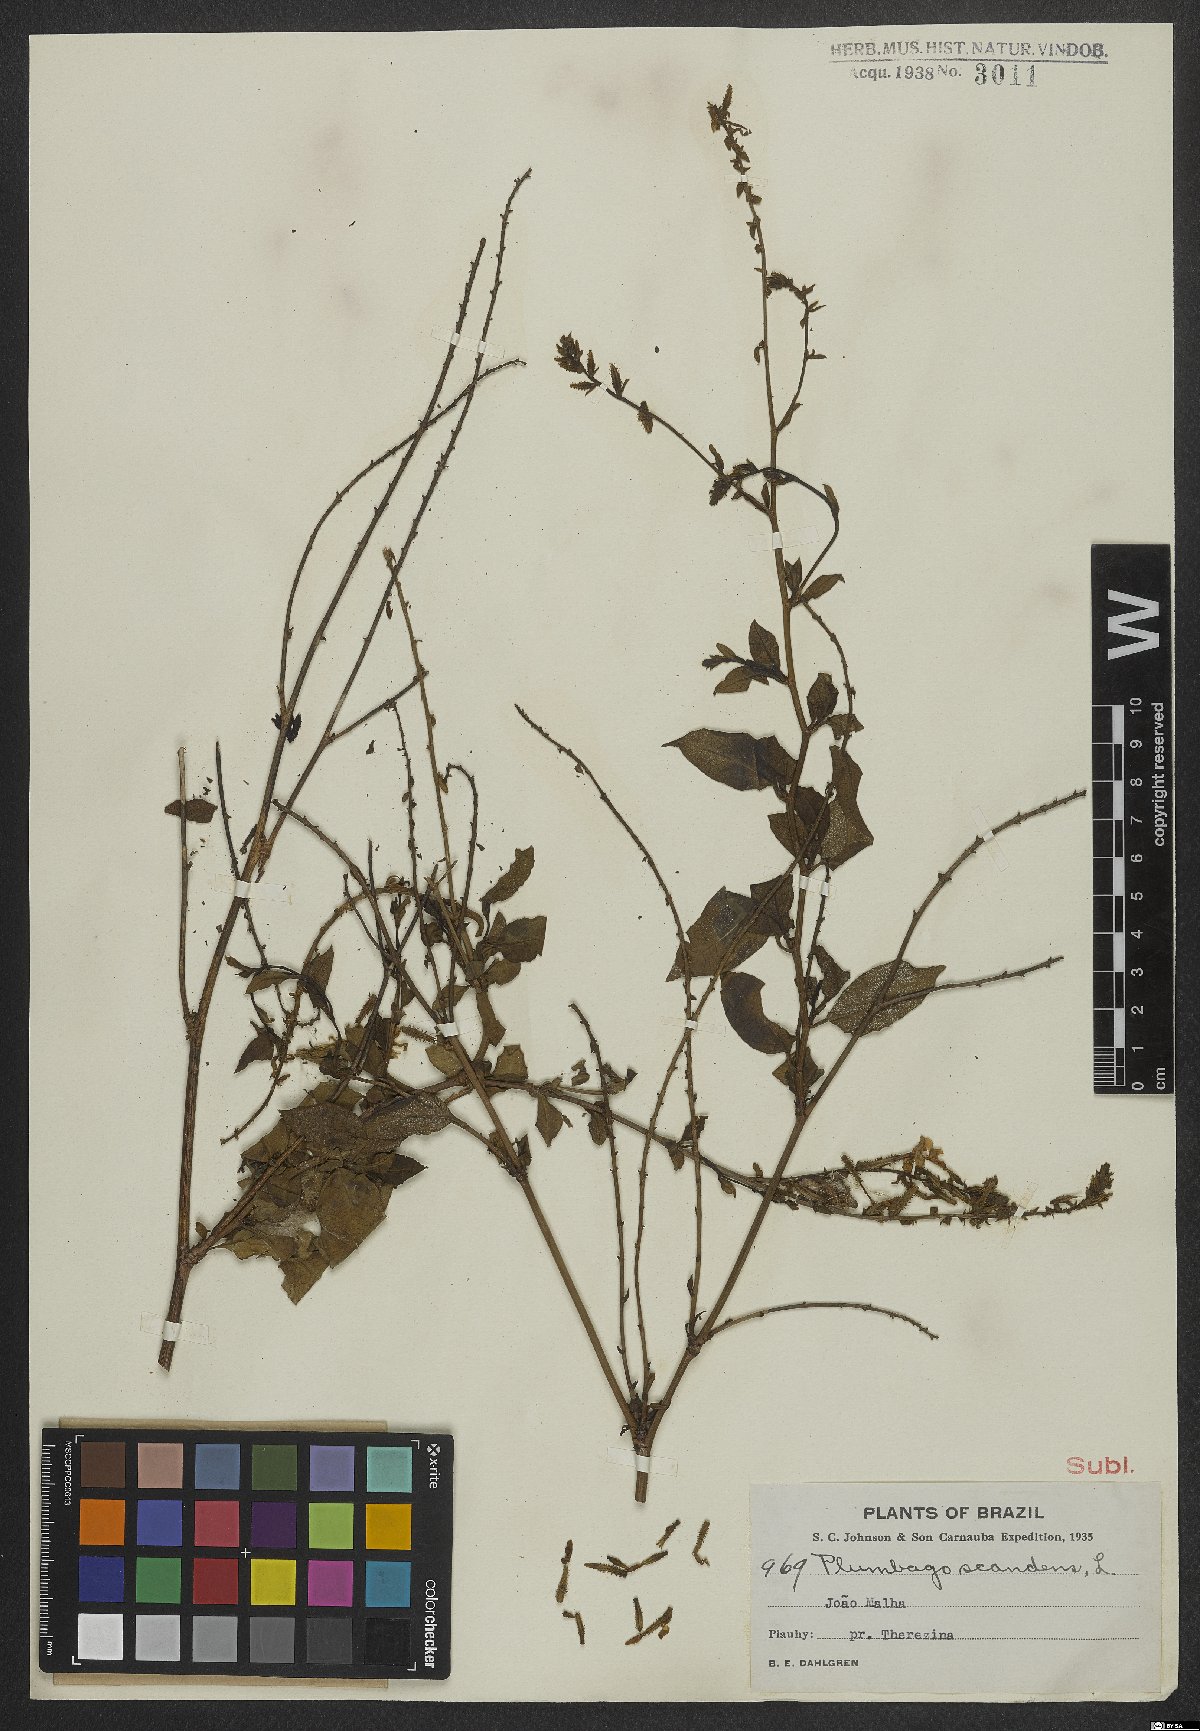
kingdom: Plantae
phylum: Tracheophyta
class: Magnoliopsida
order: Caryophyllales
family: Plumbaginaceae
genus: Plumbago
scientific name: Plumbago zeylanica
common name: Doctorbush
